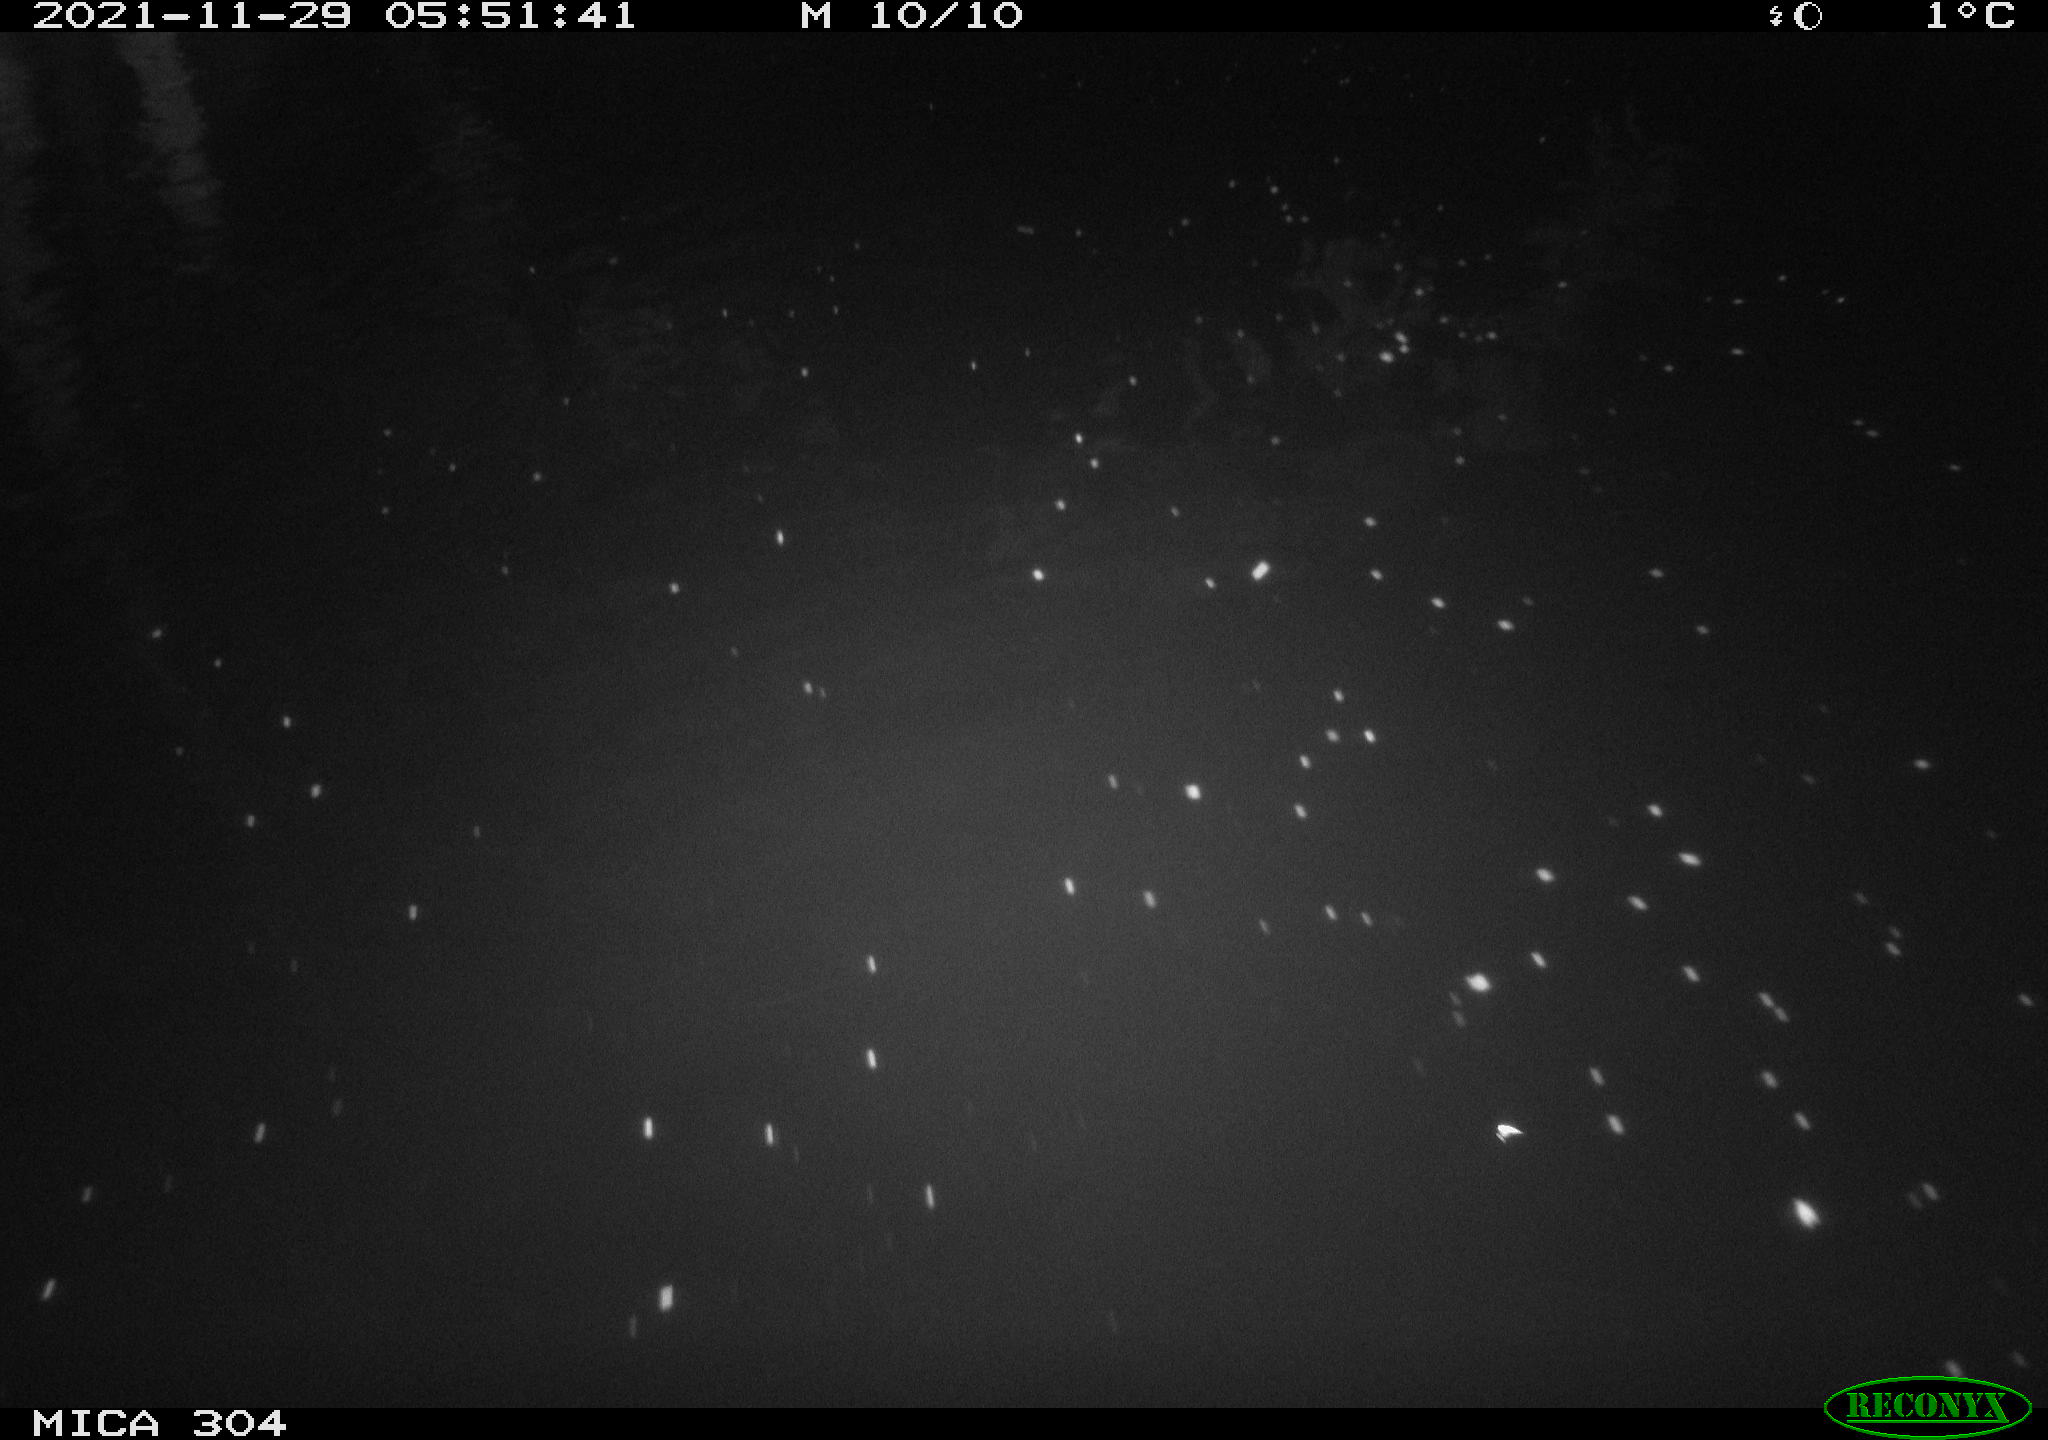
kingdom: Animalia
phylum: Chordata
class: Mammalia
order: Rodentia
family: Muridae
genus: Rattus
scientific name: Rattus norvegicus
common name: Brown rat
